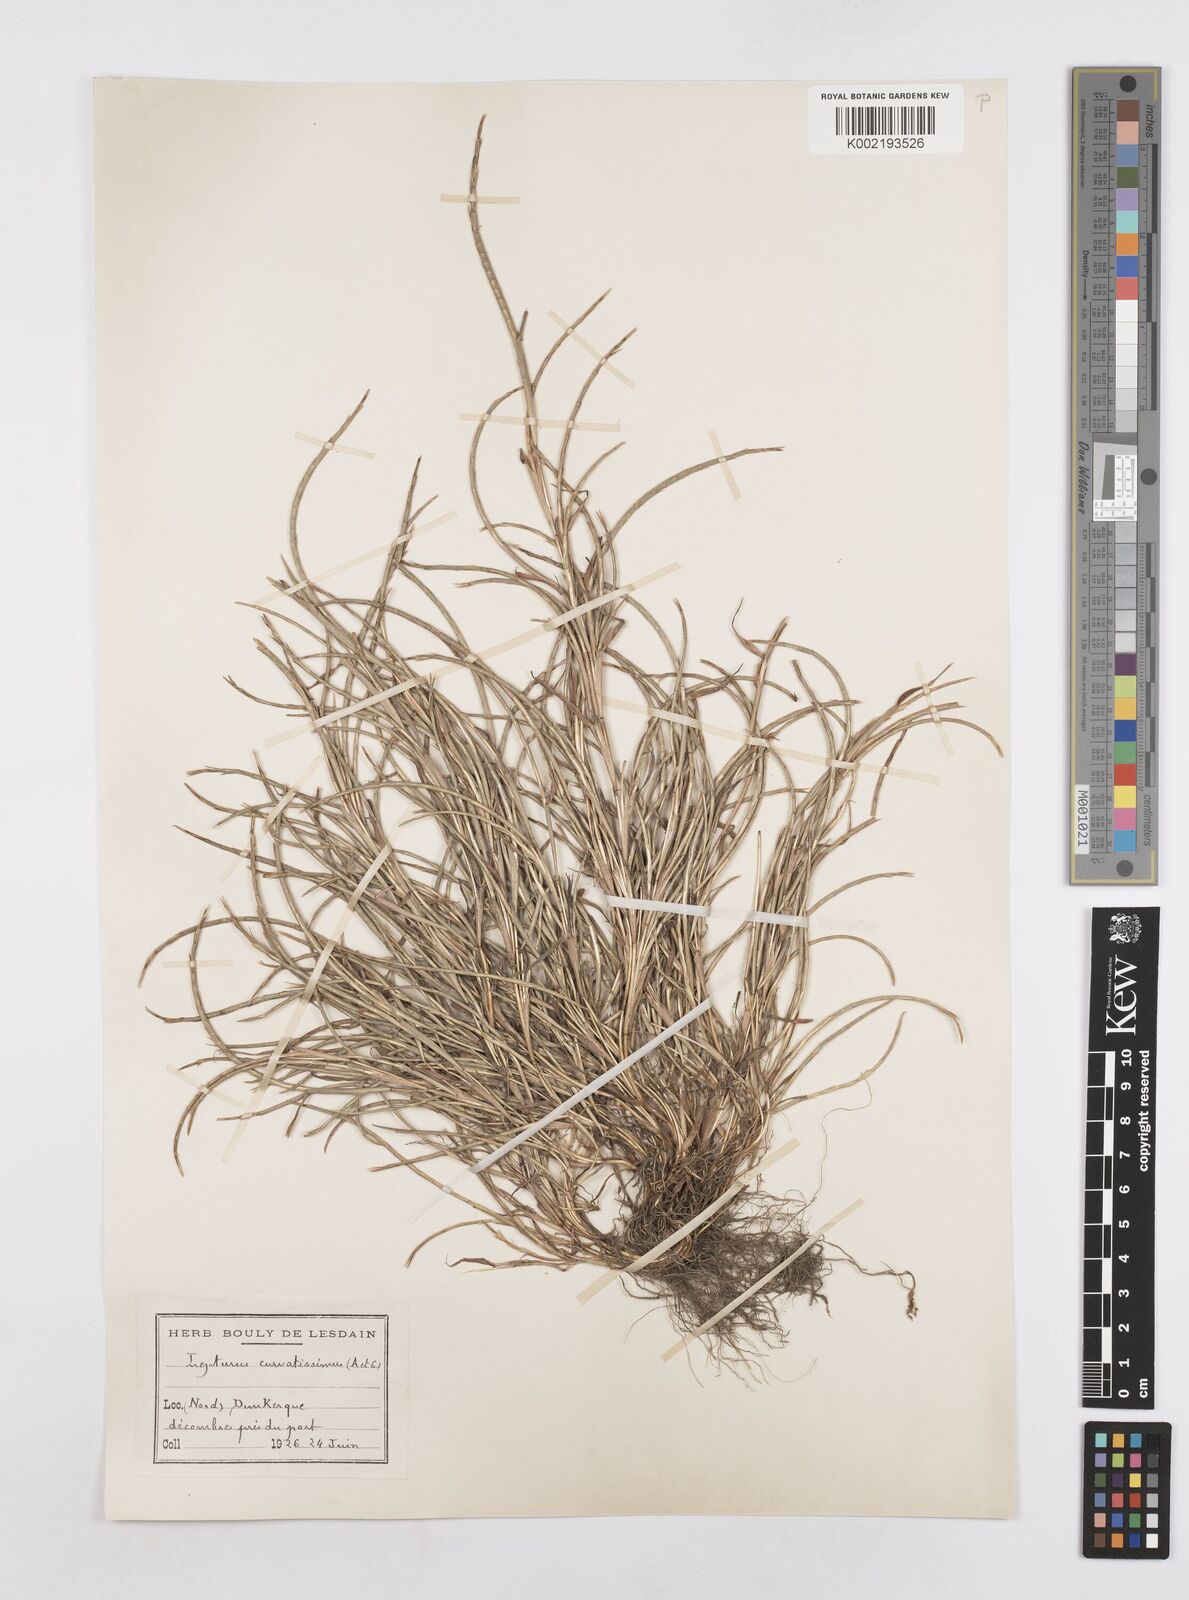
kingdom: Plantae
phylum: Tracheophyta
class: Liliopsida
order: Poales
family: Poaceae
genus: Parapholis
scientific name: Parapholis incurva
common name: Curved sicklegrass
